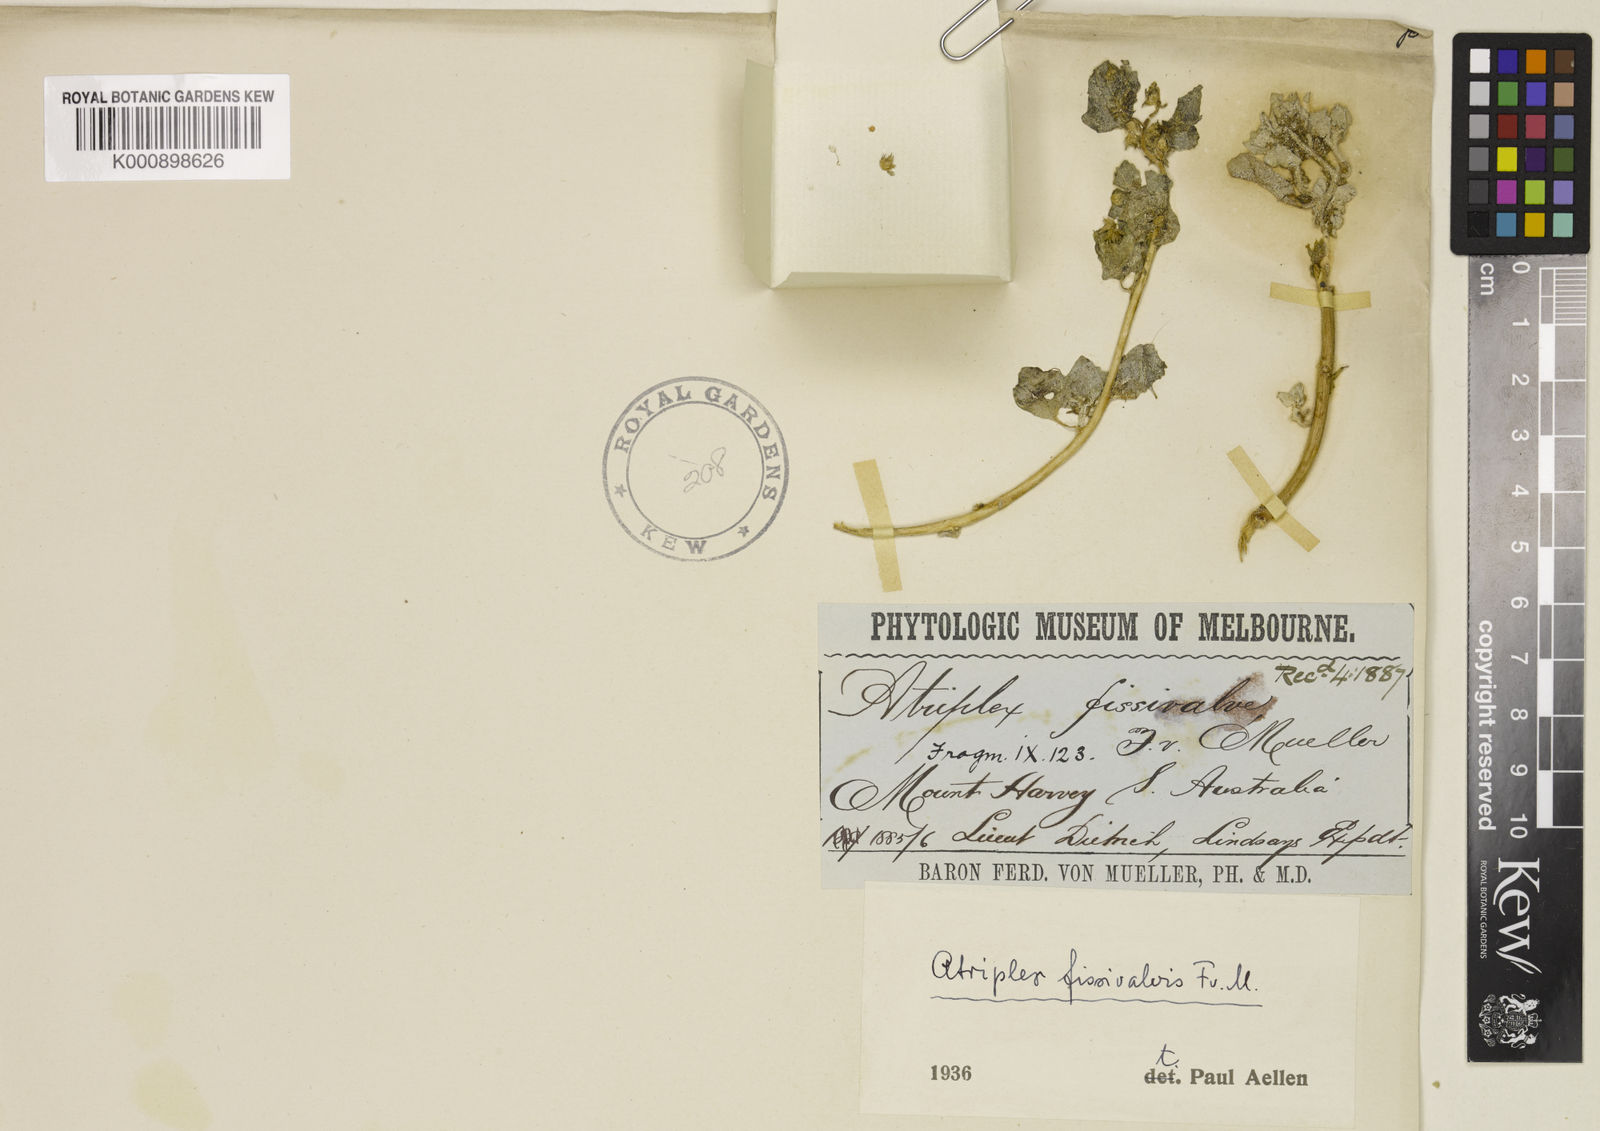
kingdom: Plantae
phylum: Tracheophyta
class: Magnoliopsida
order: Caryophyllales
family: Amaranthaceae
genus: Atriplex
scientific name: Atriplex fissivalvis
